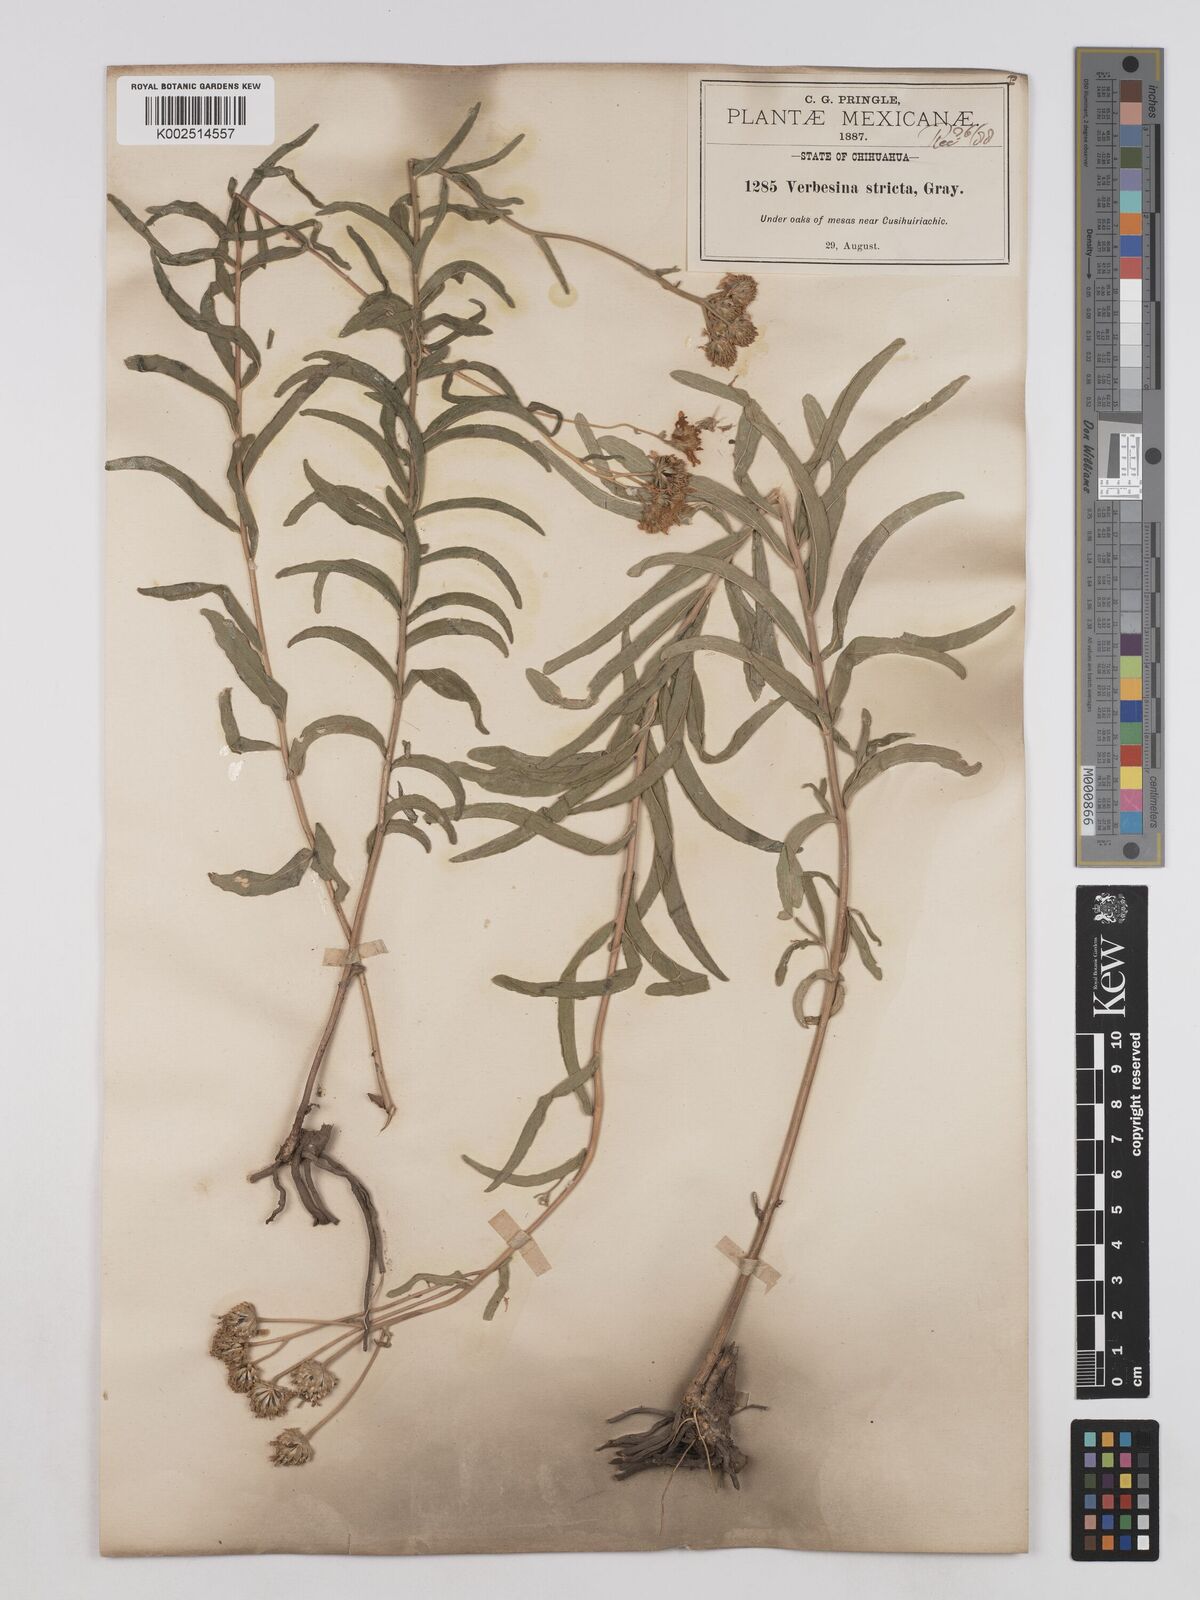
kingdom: Plantae
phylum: Tracheophyta
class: Magnoliopsida
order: Asterales
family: Asteraceae
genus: Verbesina
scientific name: Verbesina parviflora
